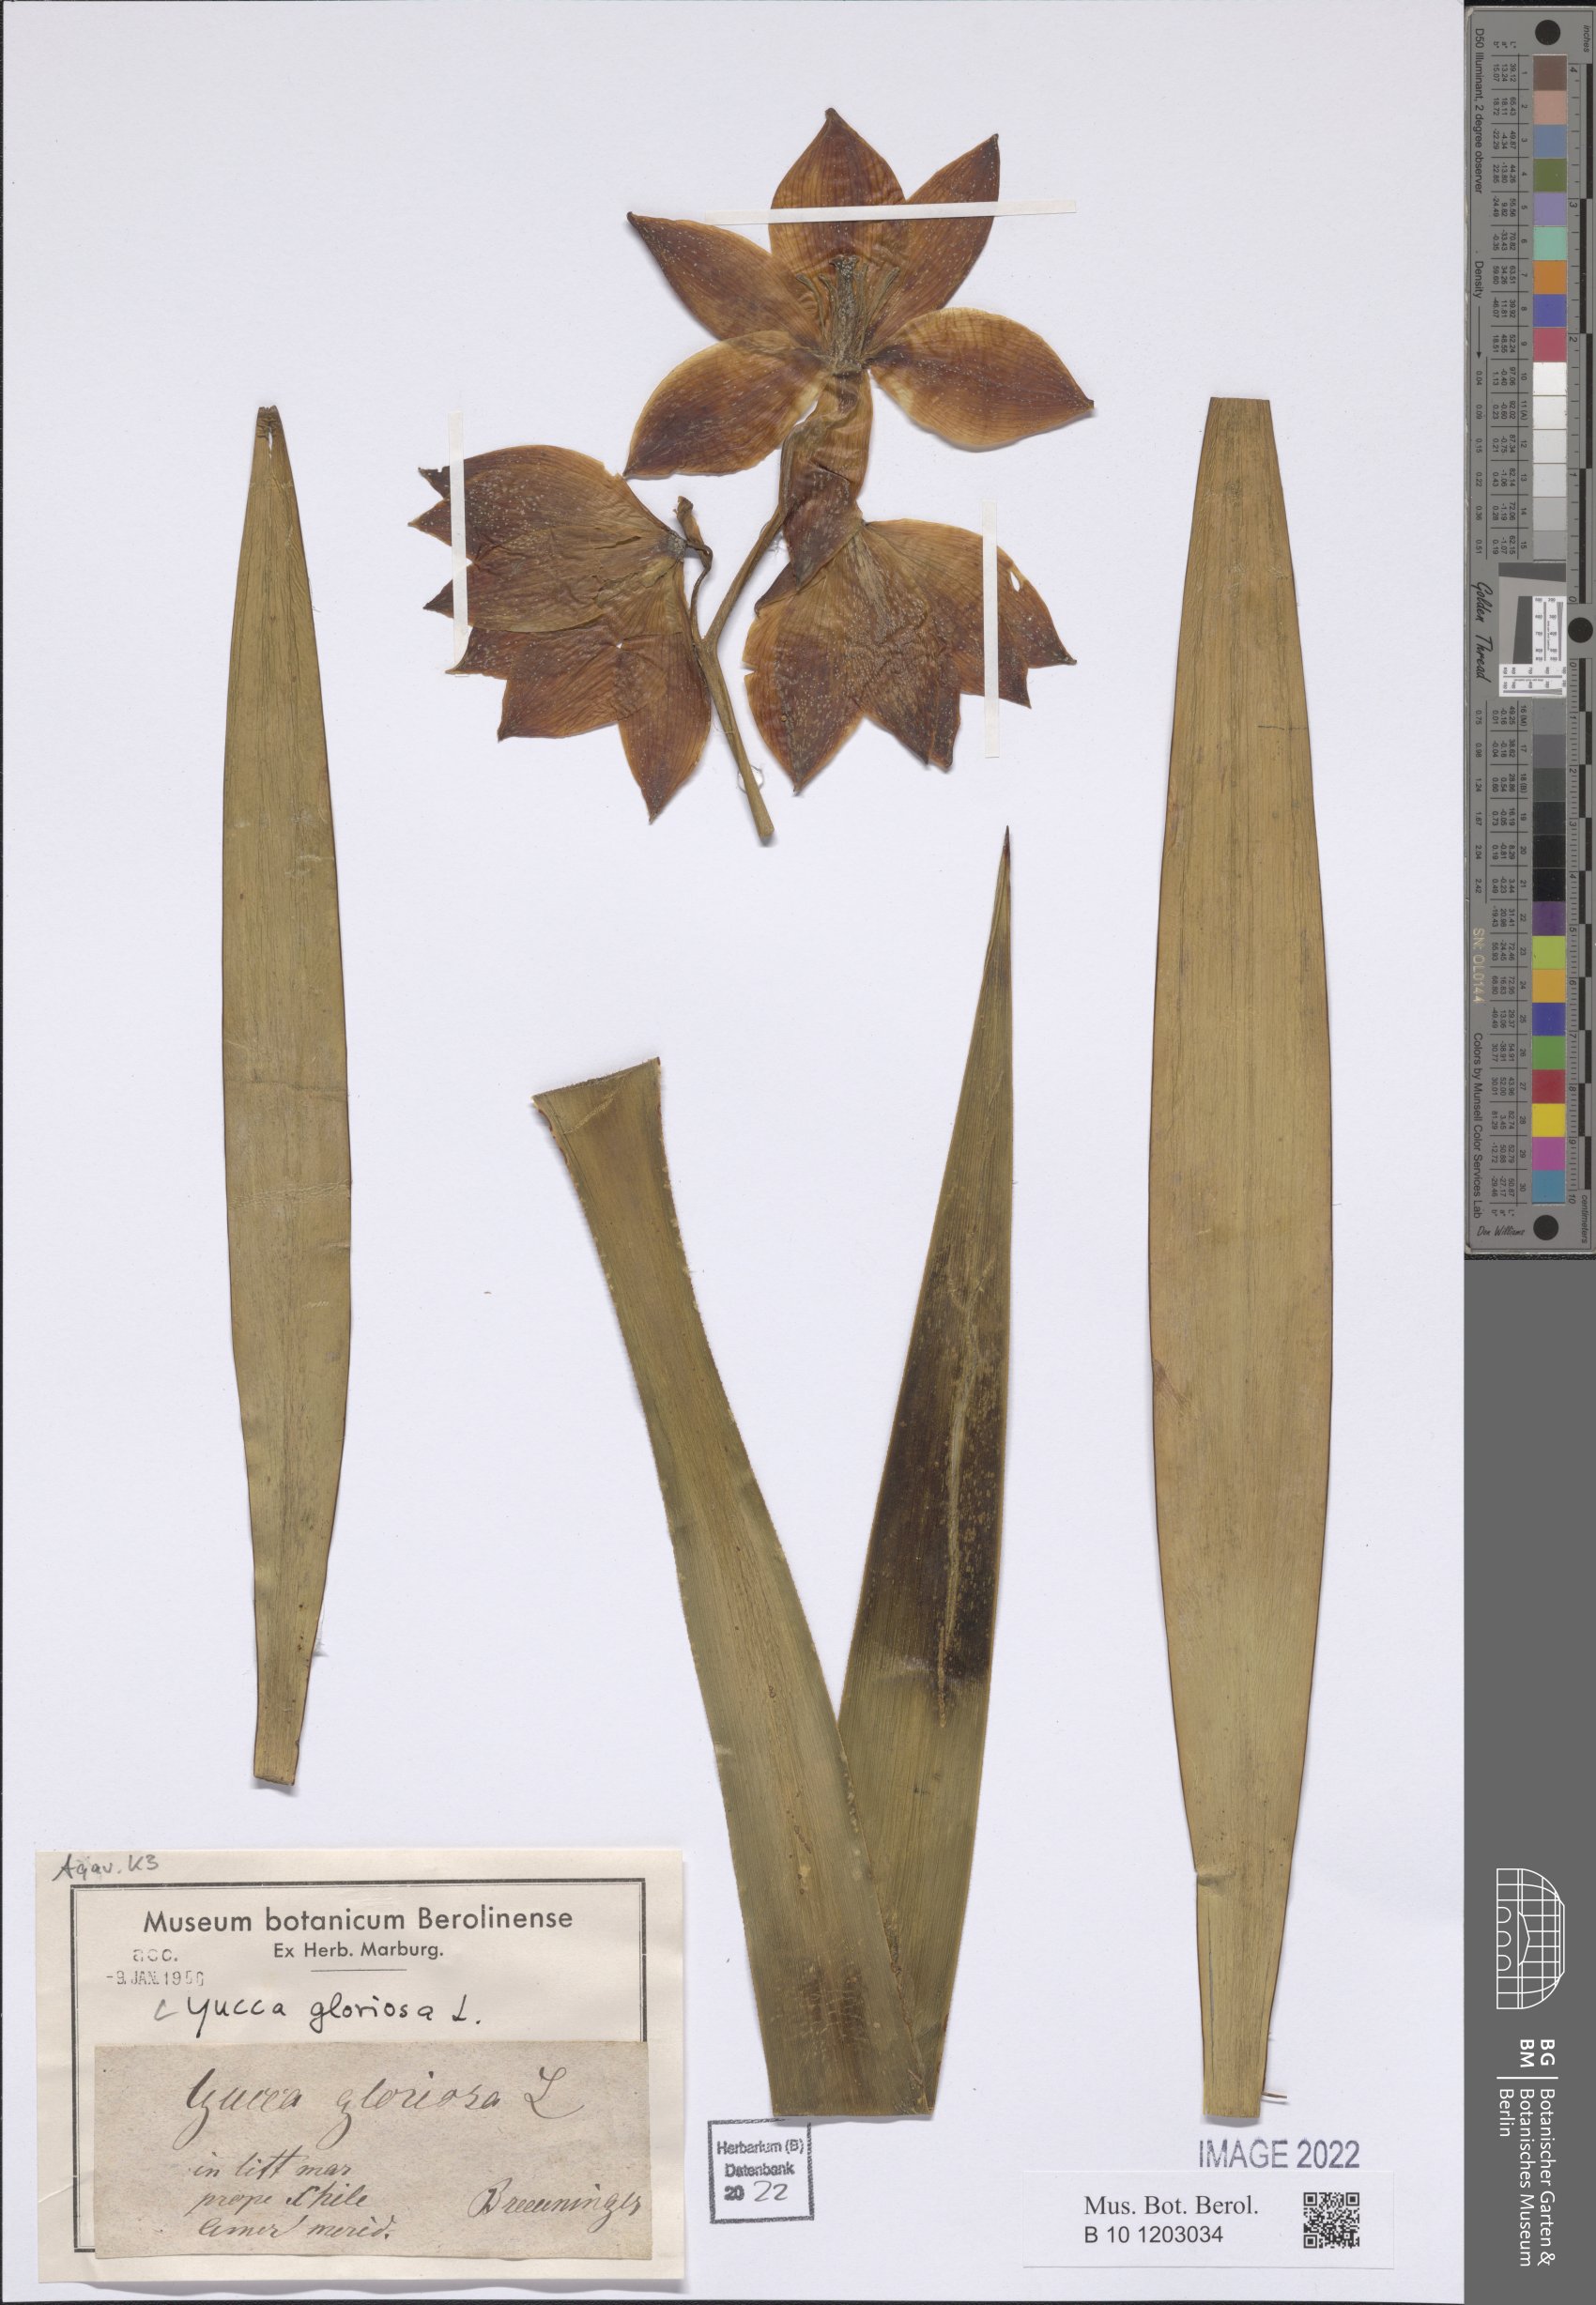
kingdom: Plantae
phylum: Tracheophyta
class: Liliopsida
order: Asparagales
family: Asparagaceae
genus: Yucca
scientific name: Yucca gloriosa
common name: Spanish-dagger
